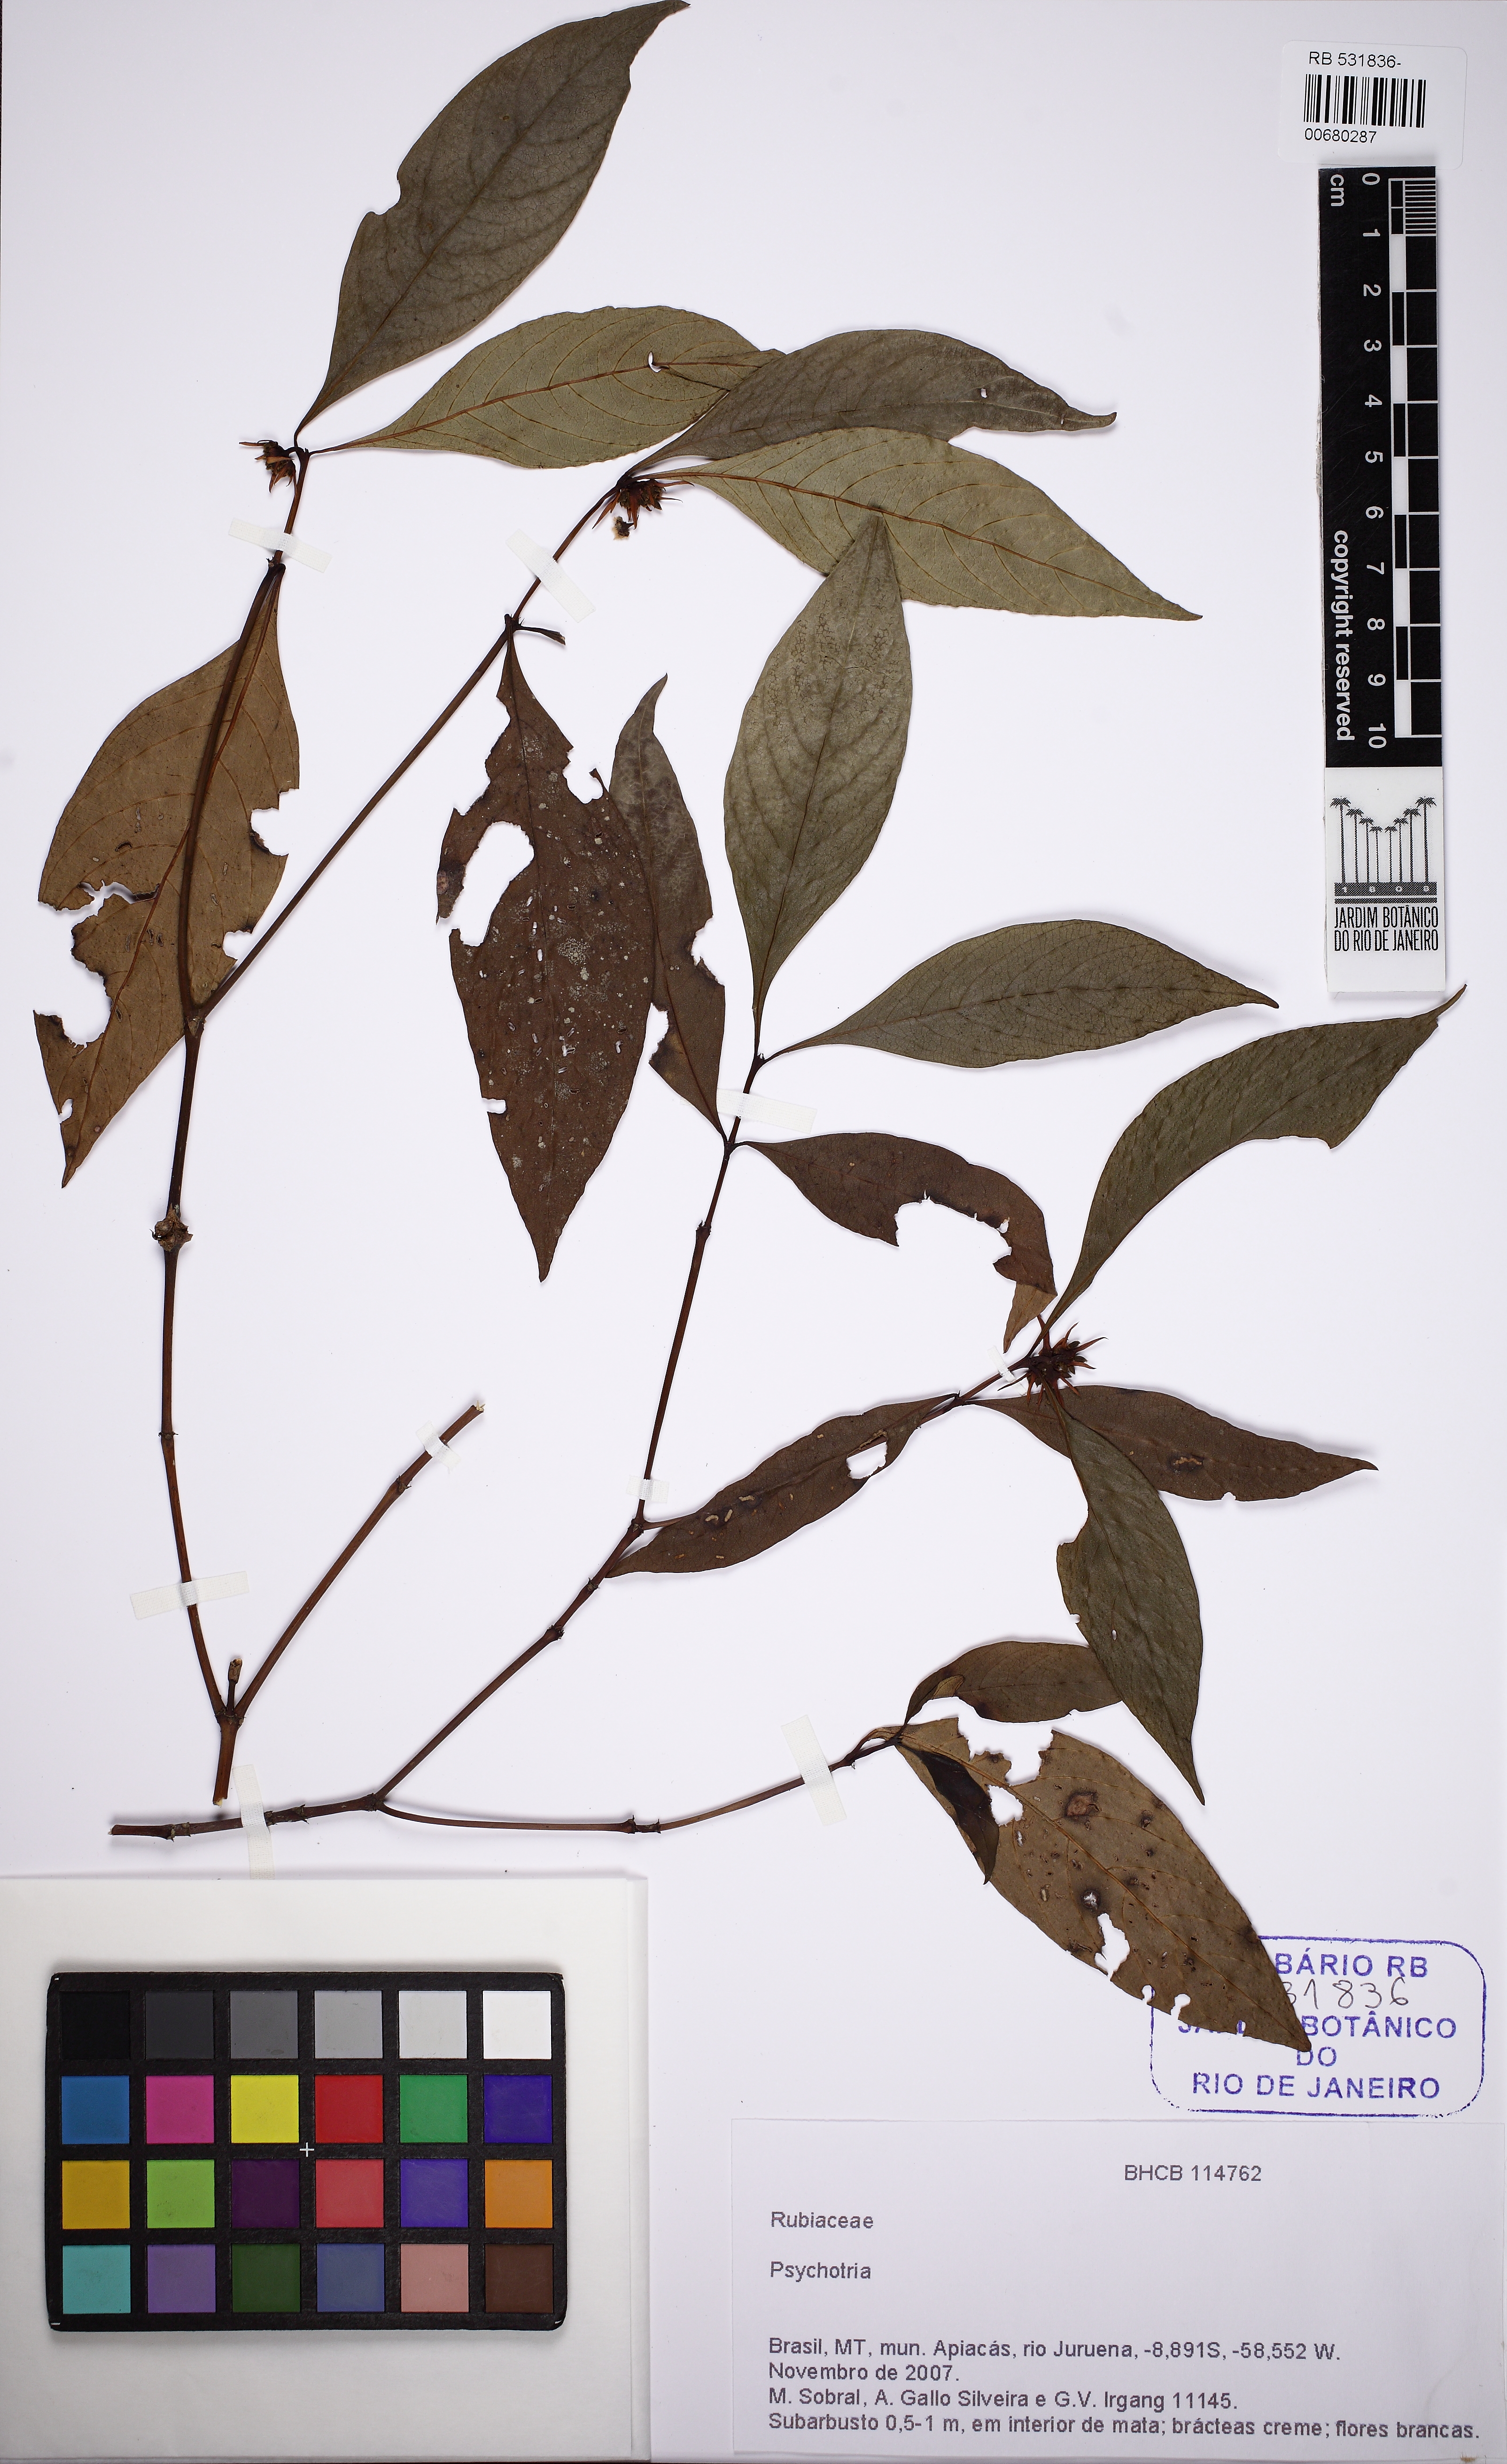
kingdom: Plantae
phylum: Tracheophyta
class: Magnoliopsida
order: Gentianales
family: Rubiaceae
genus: Palicourea
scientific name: Palicourea hoffmannseggiana
